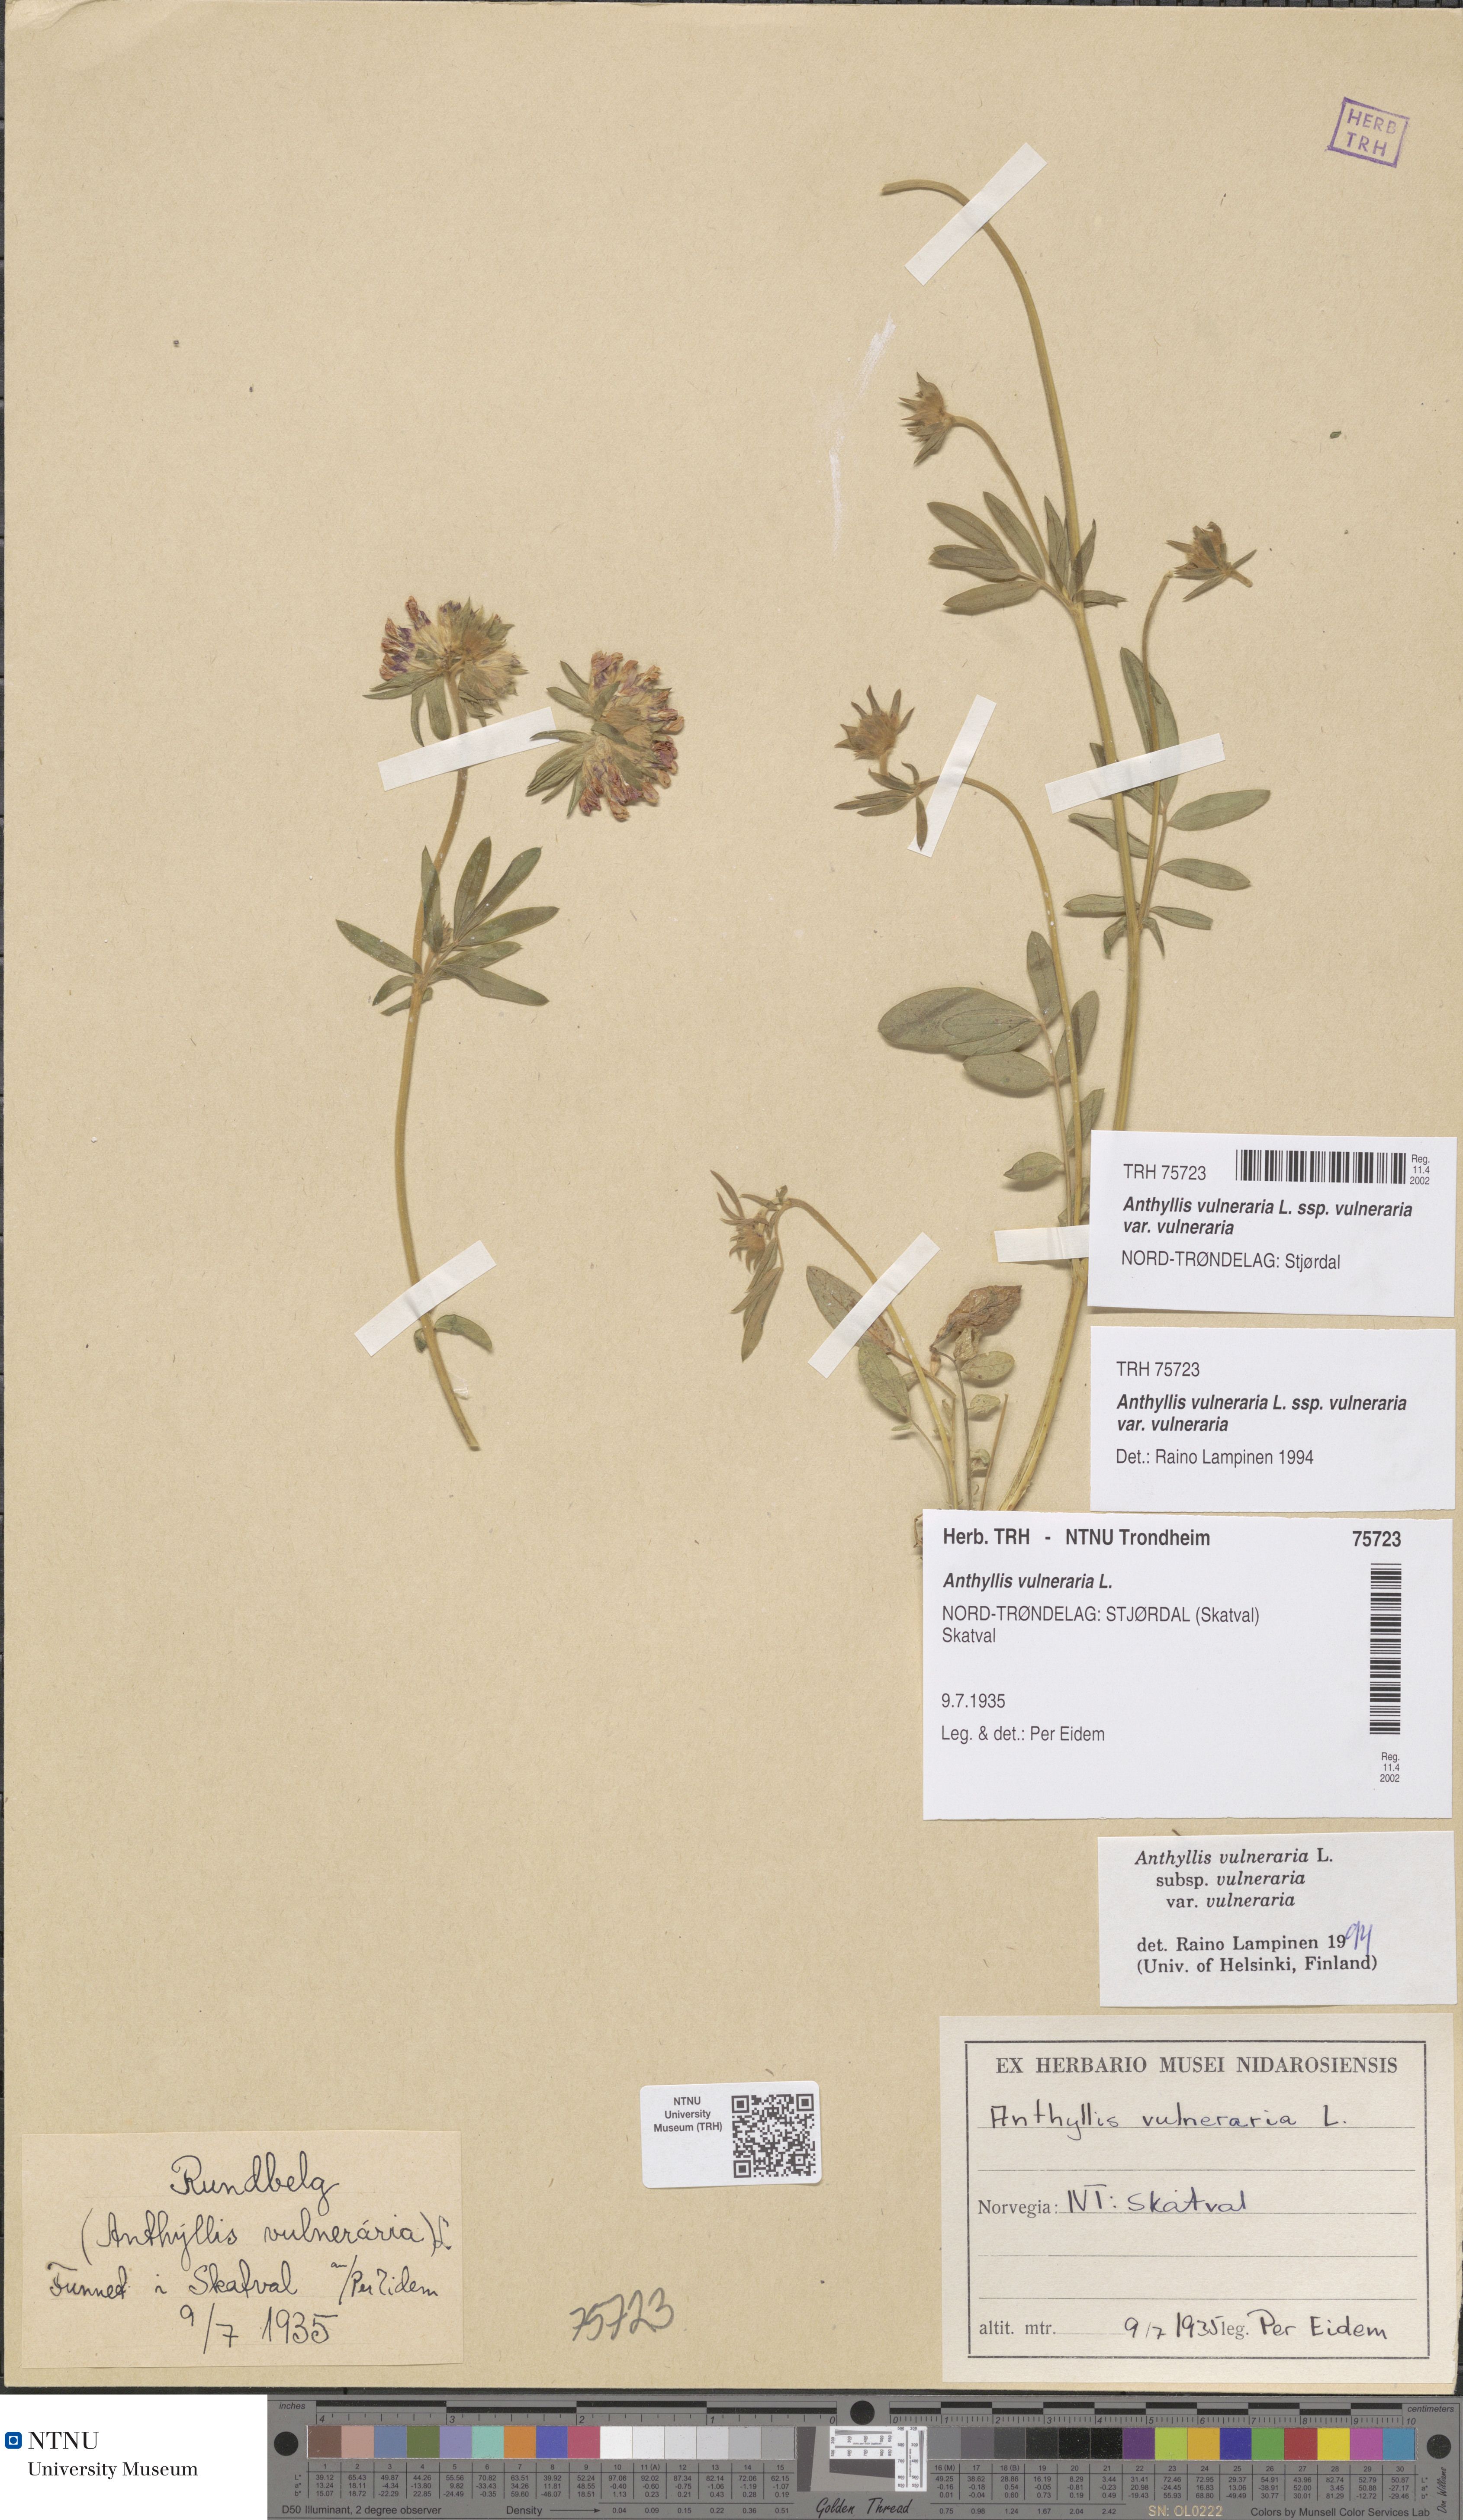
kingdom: Plantae
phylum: Tracheophyta
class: Magnoliopsida
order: Fabales
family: Fabaceae
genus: Anthyllis
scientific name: Anthyllis vulneraria
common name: Kidney vetch
